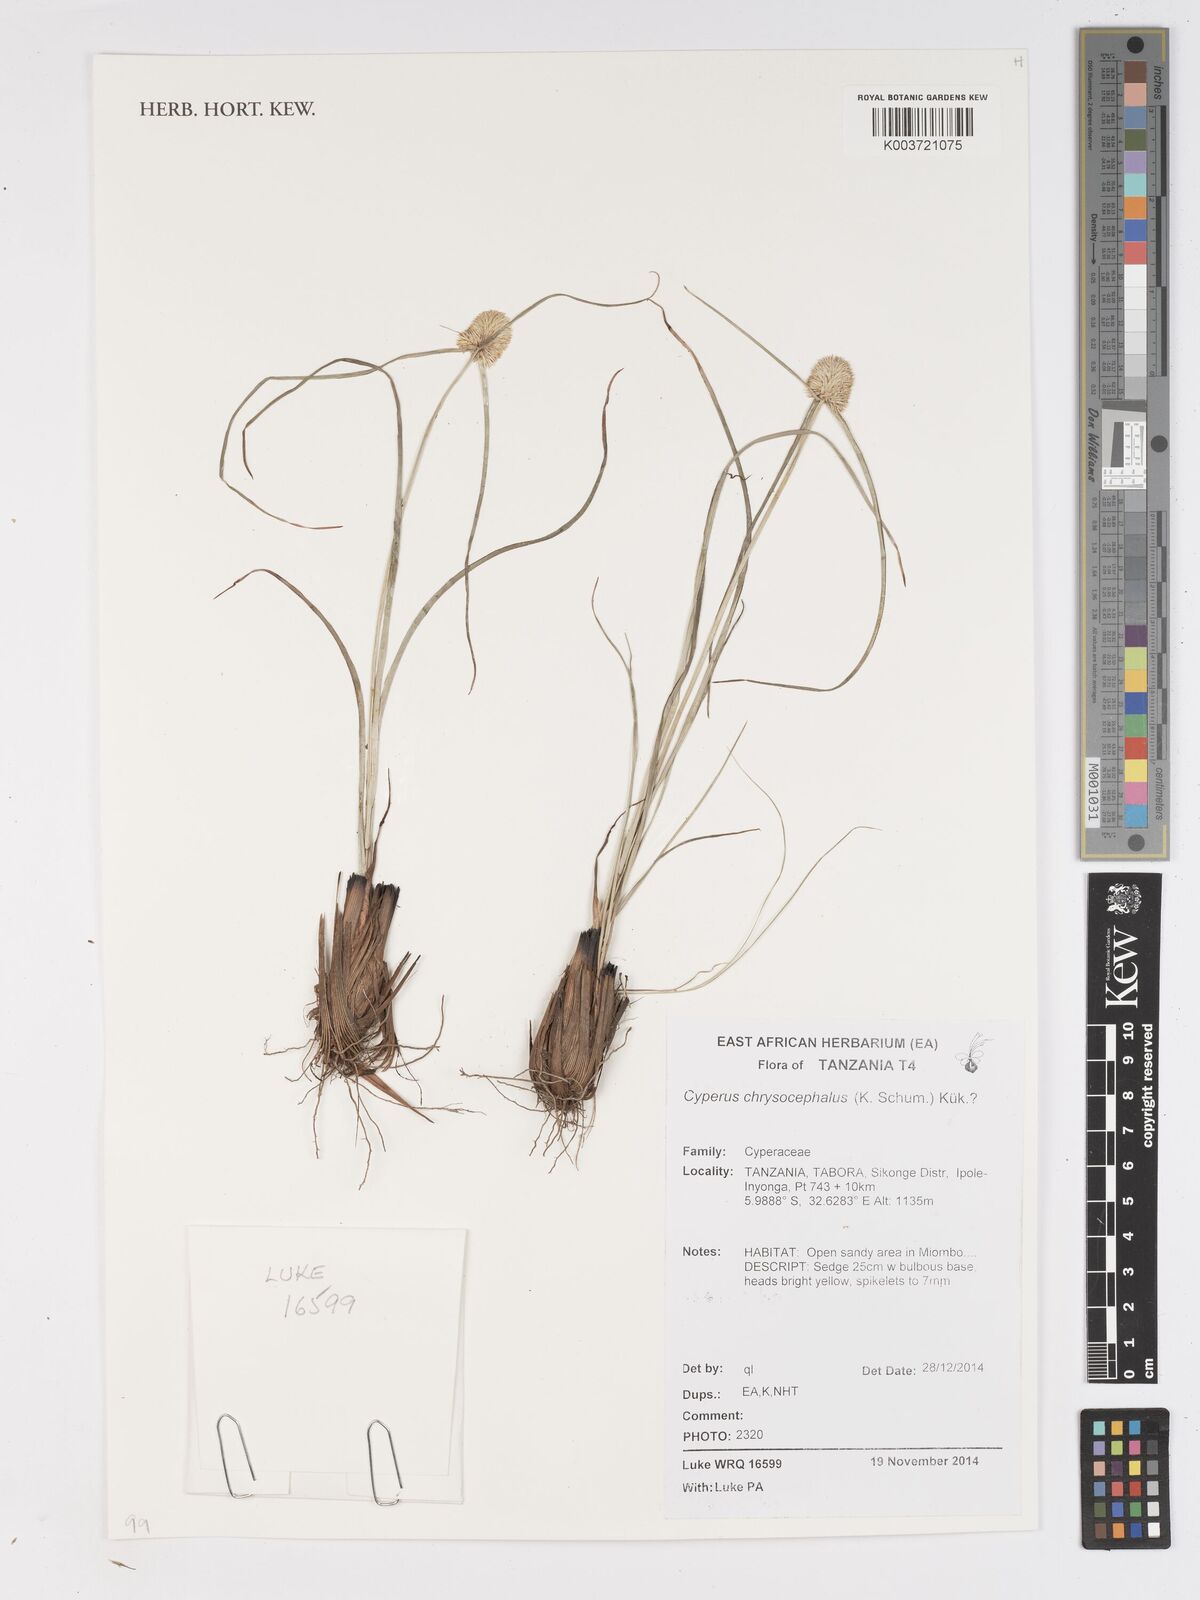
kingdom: Plantae
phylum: Tracheophyta
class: Liliopsida
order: Poales
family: Cyperaceae
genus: Cyperus
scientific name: Cyperus chrysocephalus
